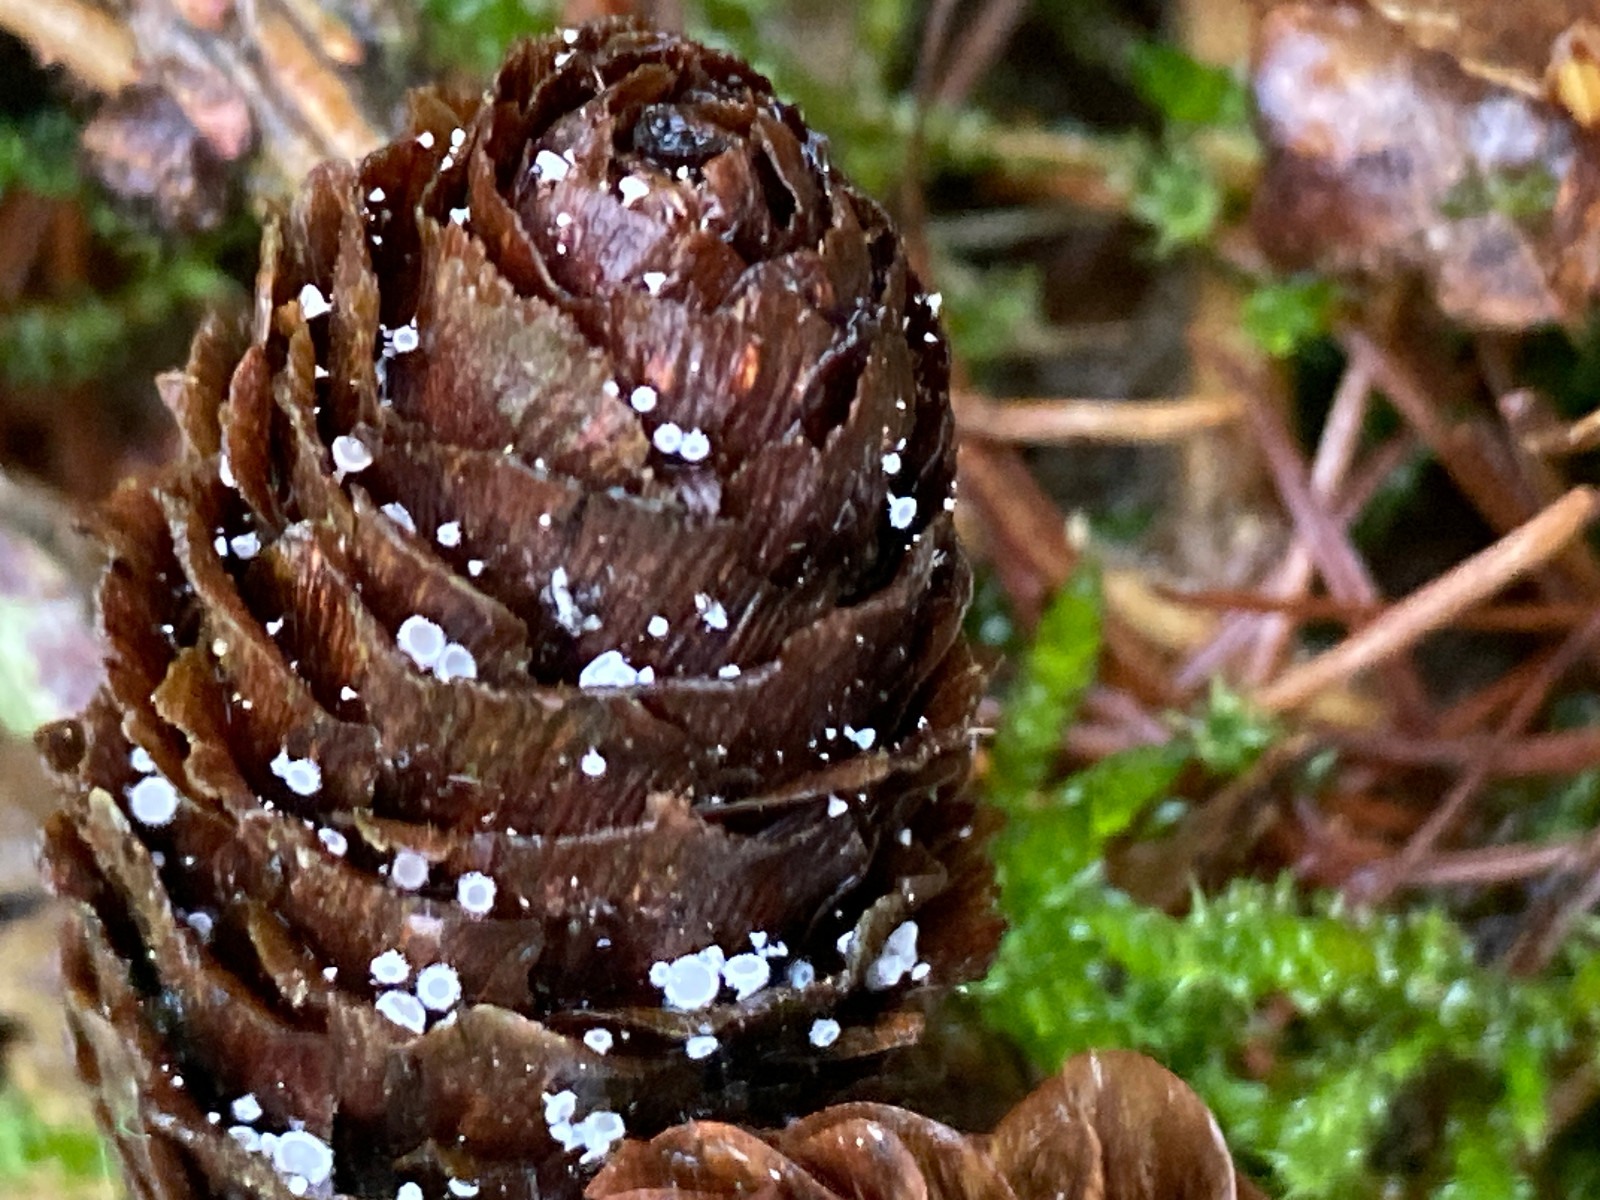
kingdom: Fungi
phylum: Ascomycota
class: Leotiomycetes
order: Helotiales
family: Lachnaceae
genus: Lachnum
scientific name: Lachnum virgineum
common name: jomfru-frynseskive
